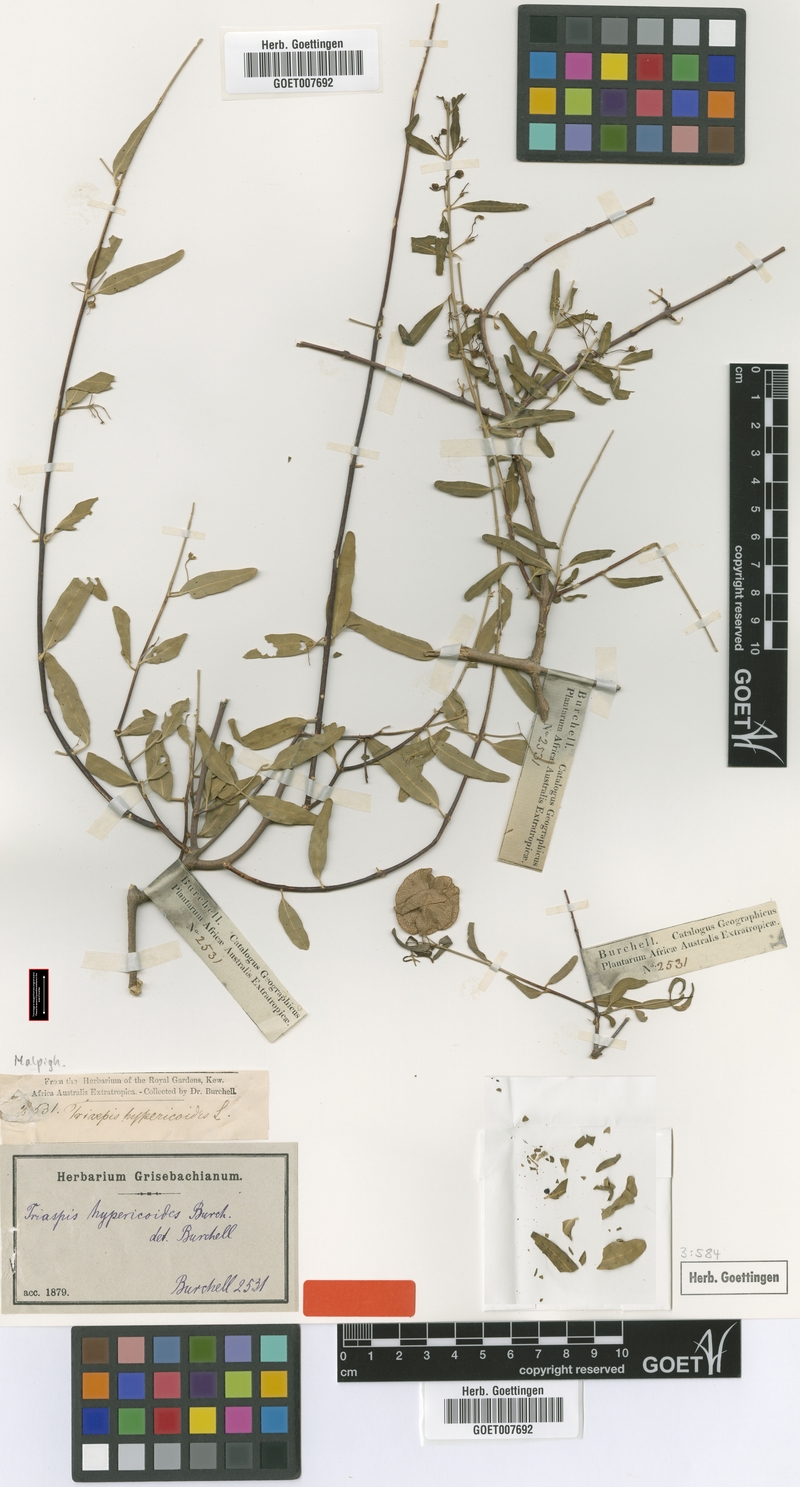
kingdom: Plantae
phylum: Tracheophyta
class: Magnoliopsida
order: Malpighiales
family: Malpighiaceae
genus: Triaspis
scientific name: Triaspis hypericoides
